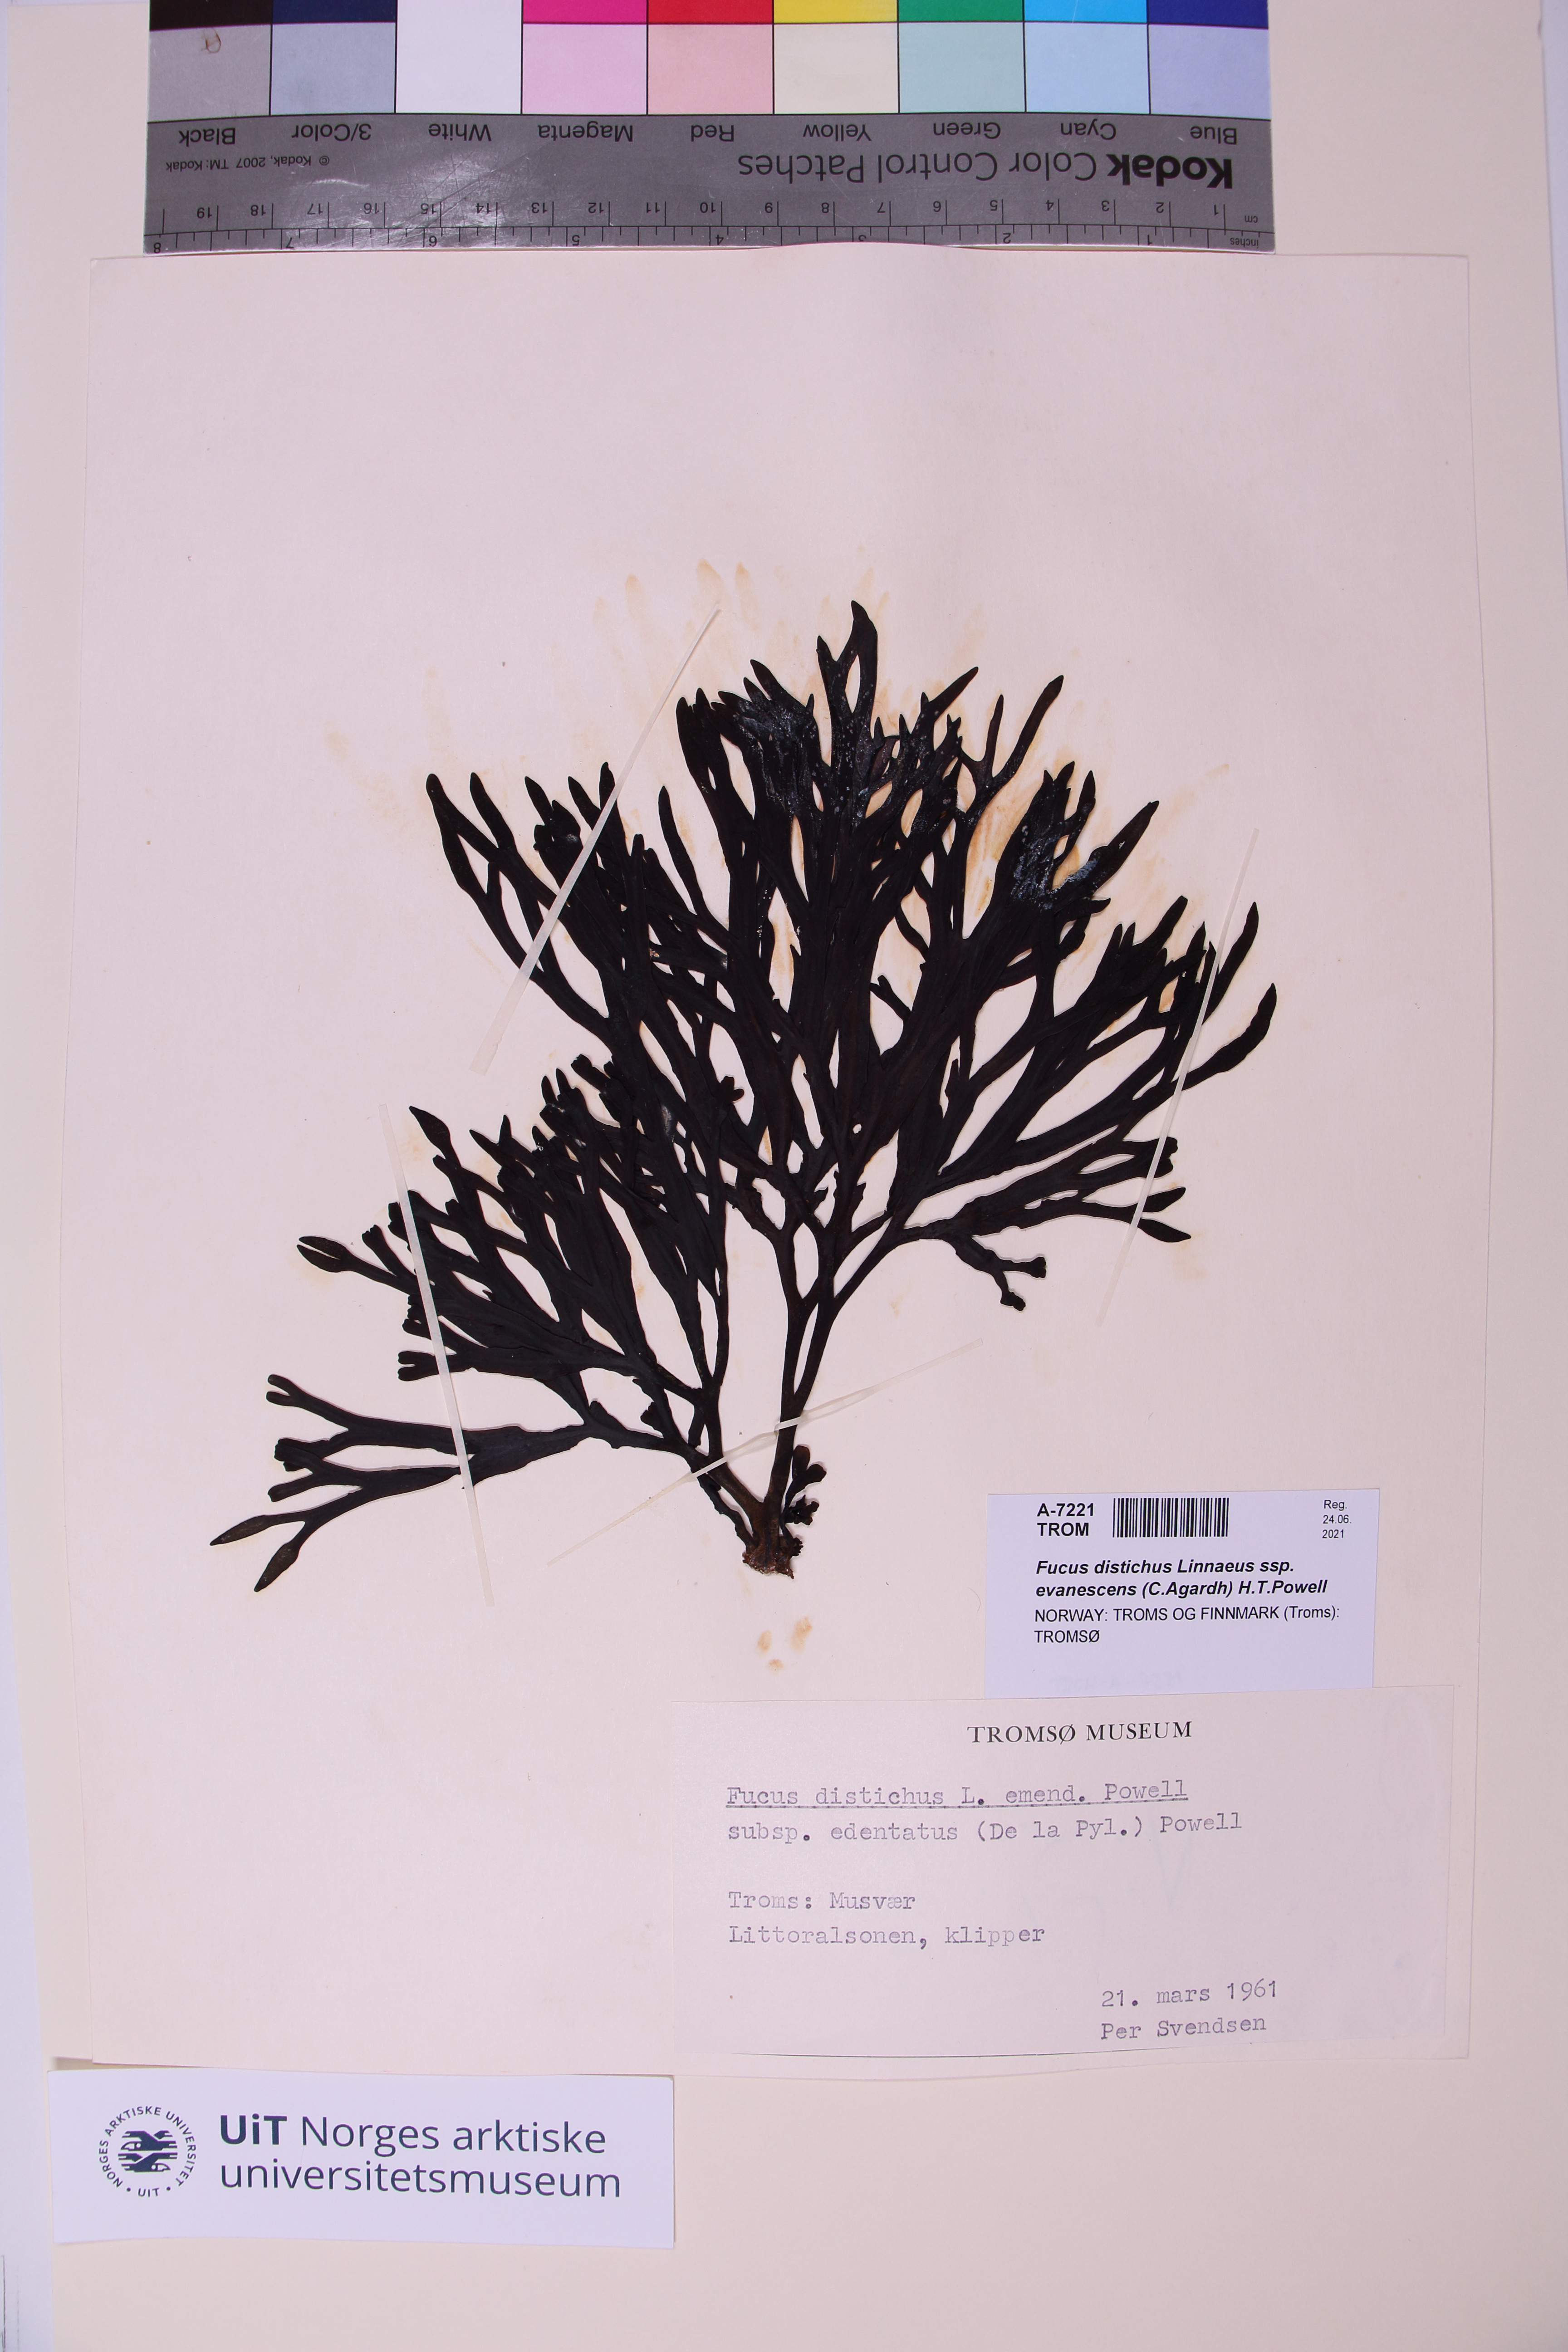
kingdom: Chromista
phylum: Ochrophyta
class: Phaeophyceae
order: Fucales
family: Fucaceae
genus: Fucus
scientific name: Fucus evanescens
